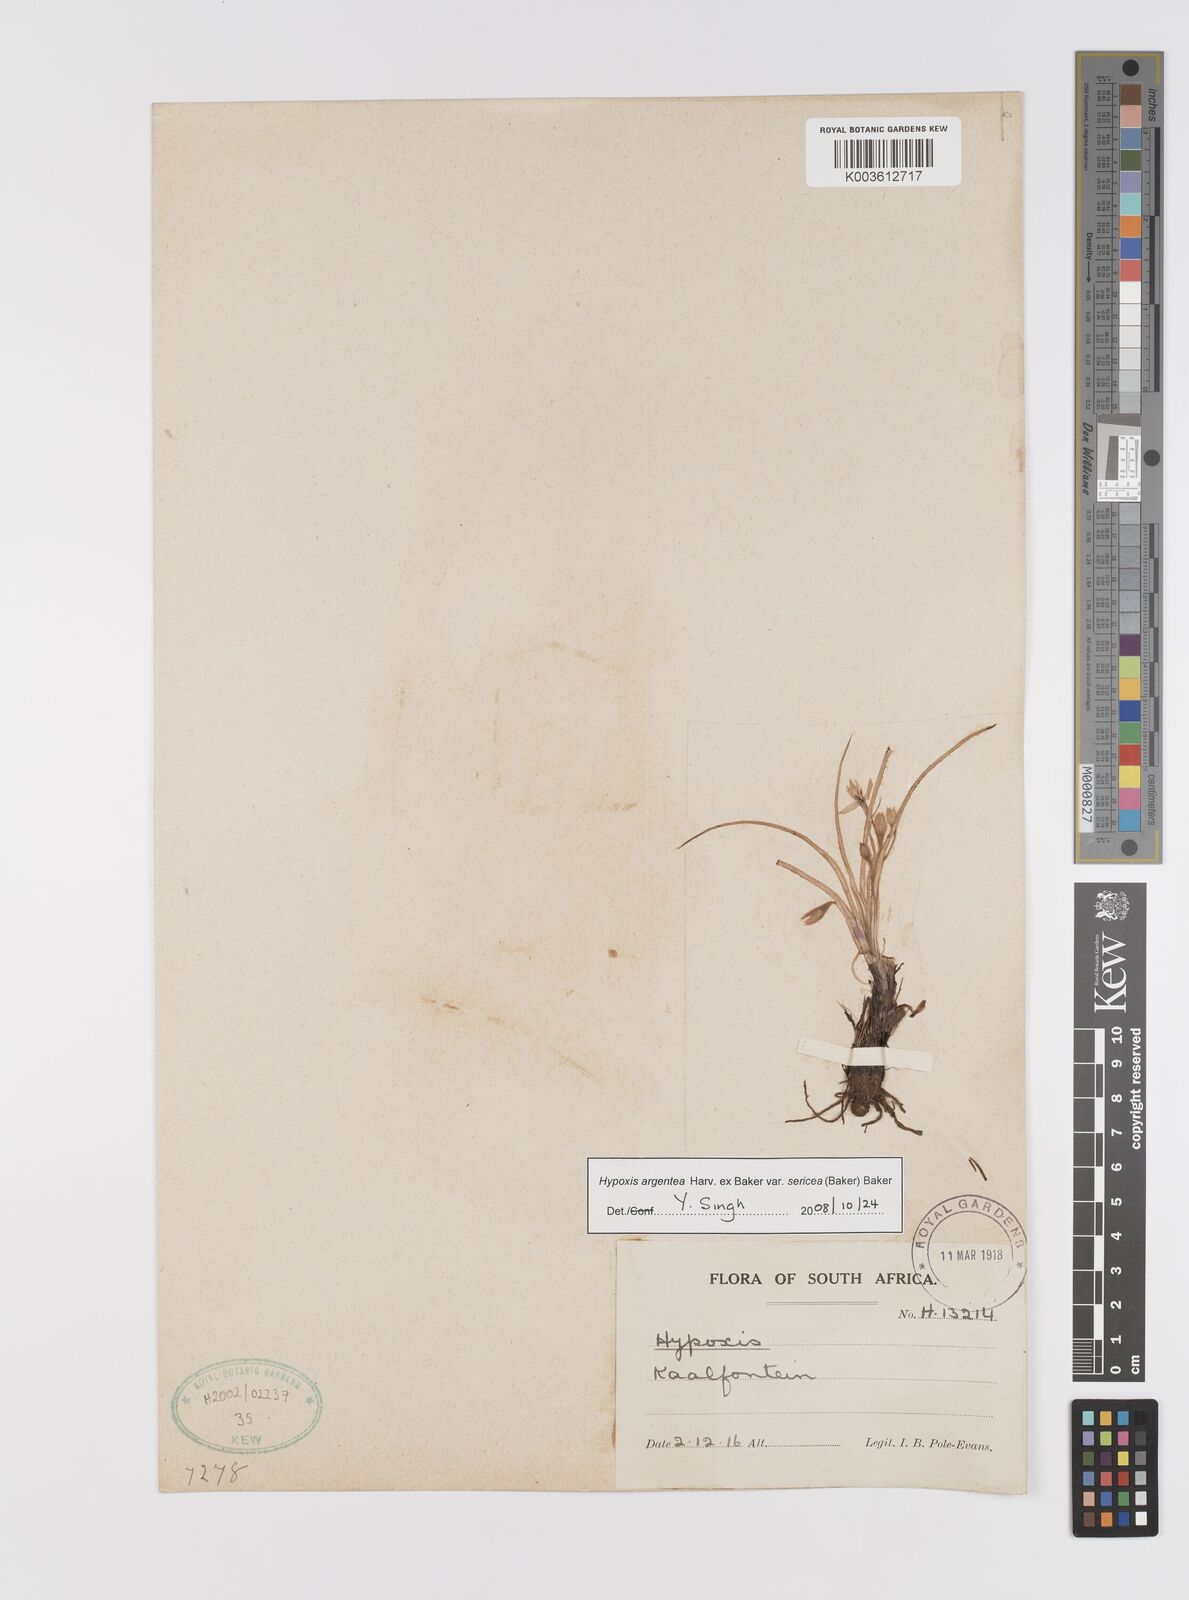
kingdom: Plantae
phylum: Tracheophyta
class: Liliopsida
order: Asparagales
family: Hypoxidaceae
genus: Hypoxis
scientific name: Hypoxis argentea
